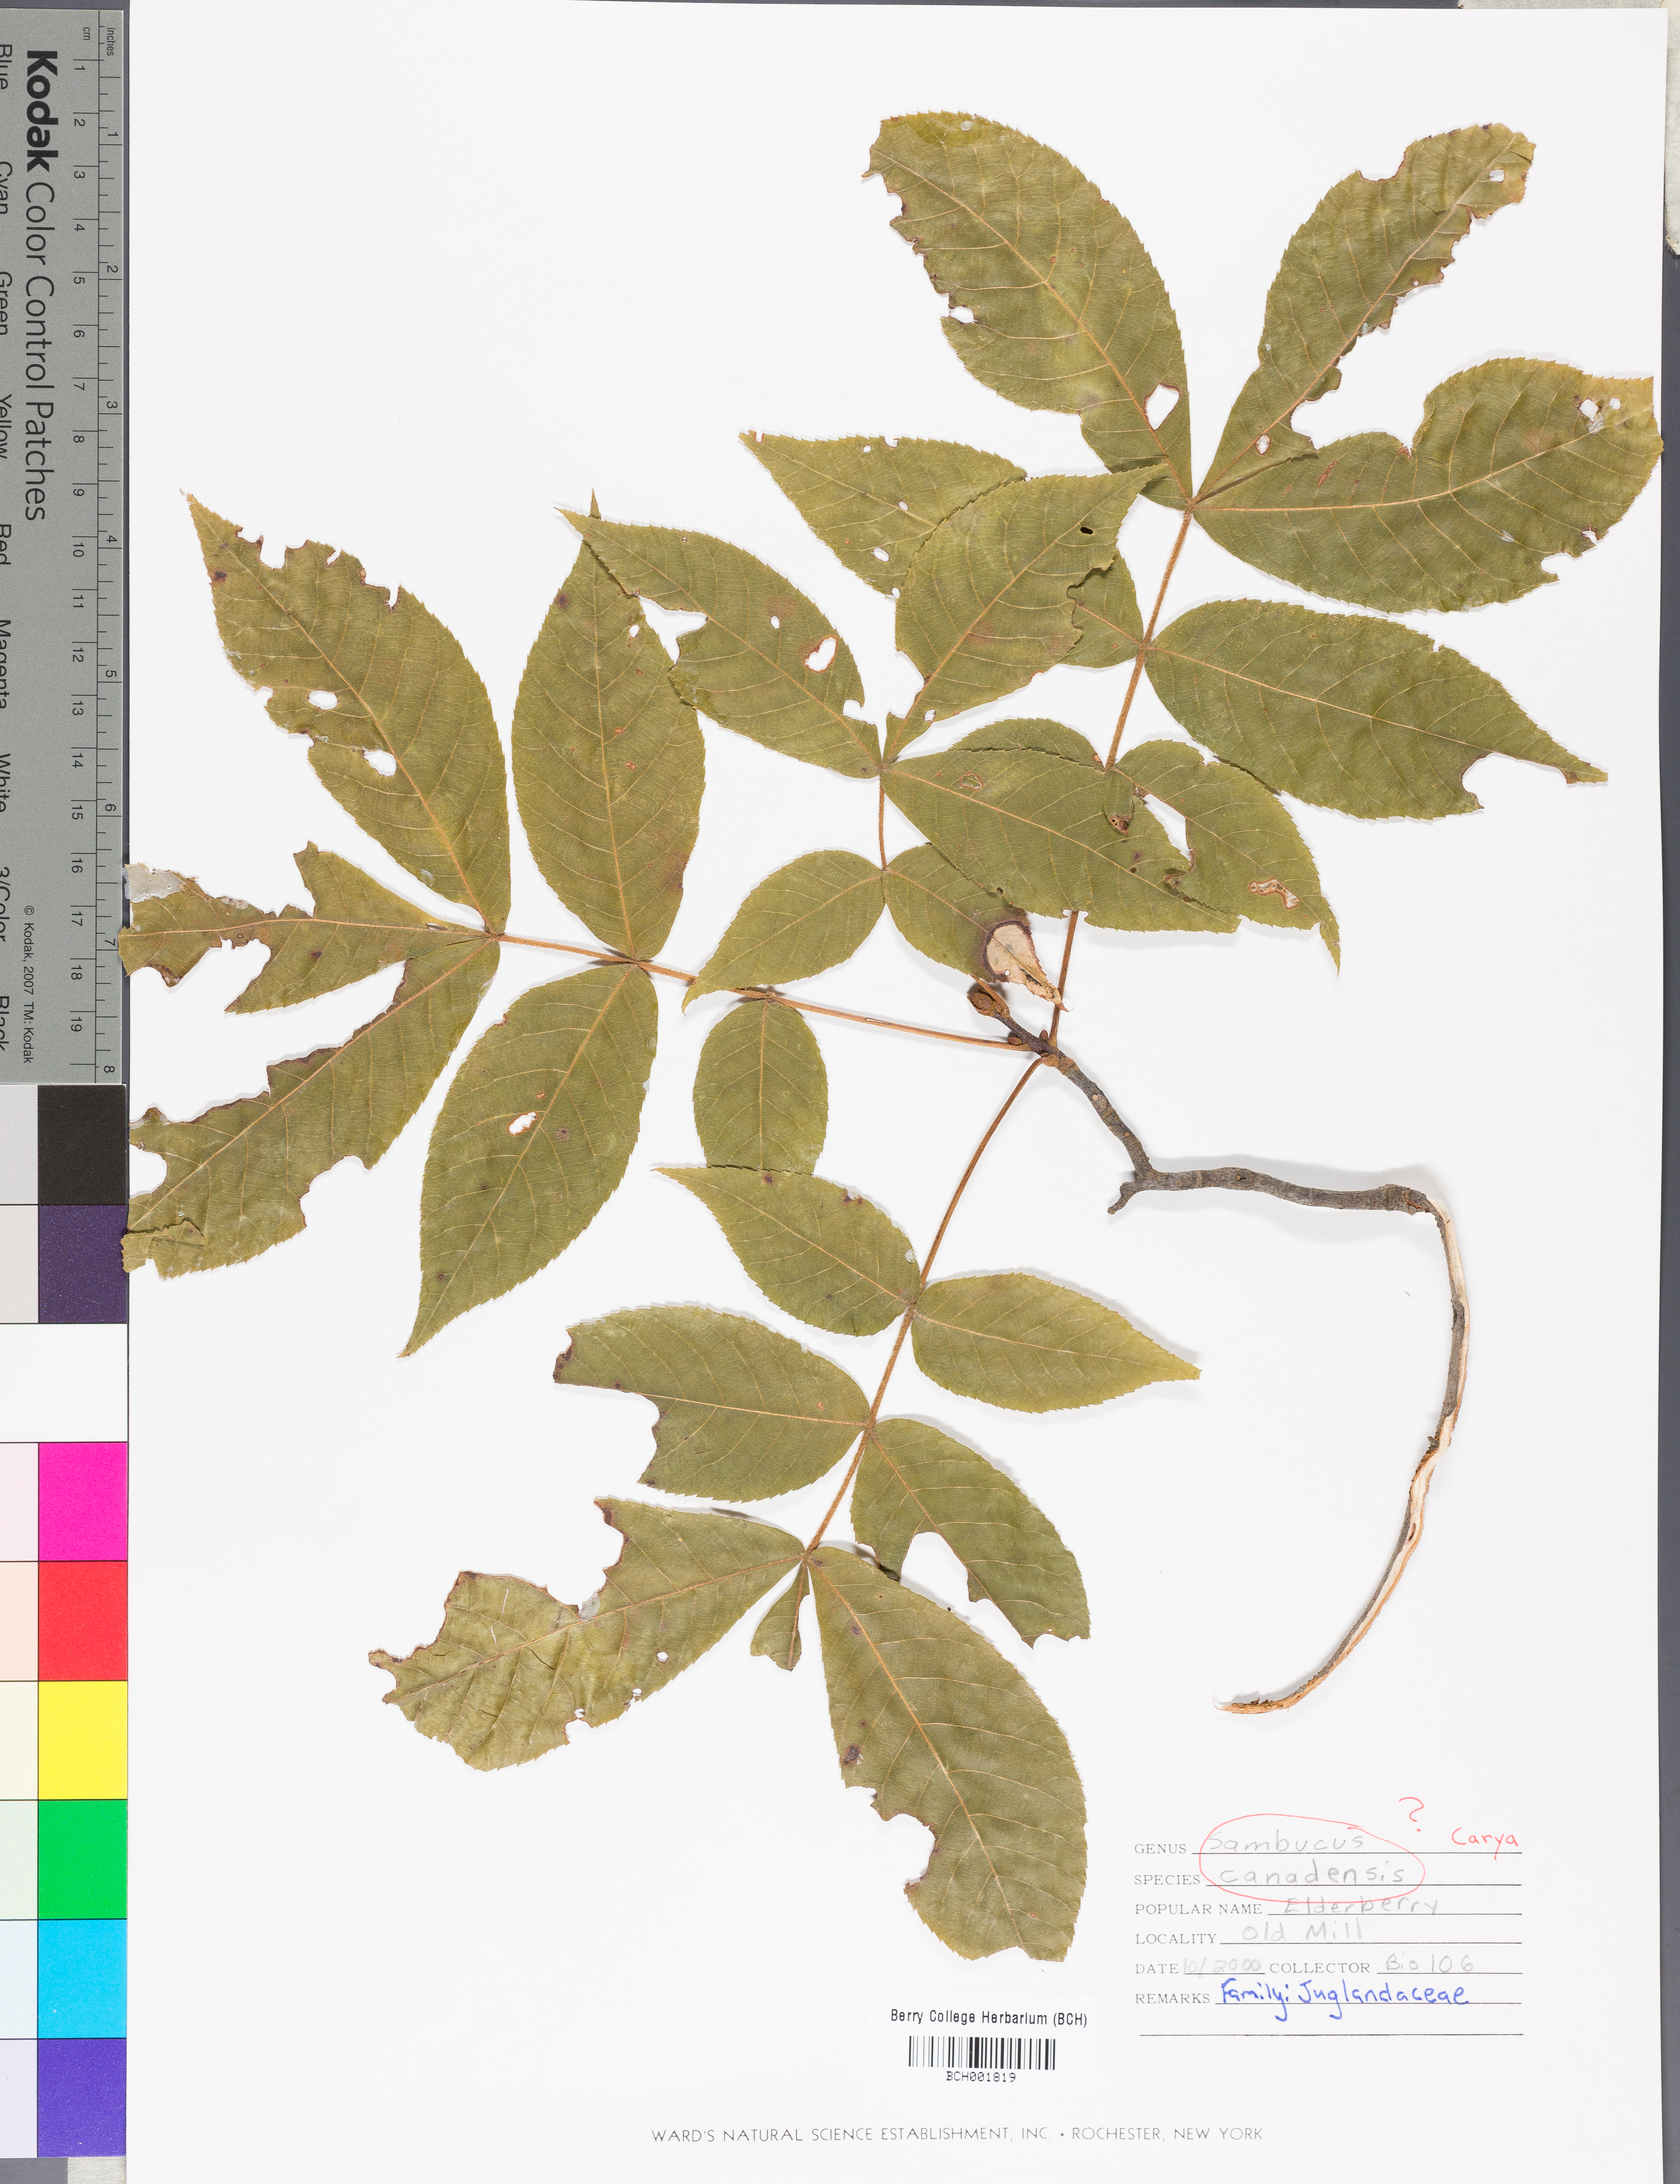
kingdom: Plantae
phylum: Tracheophyta
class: Magnoliopsida
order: Fagales
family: Juglandaceae
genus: Carya
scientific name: Carya
